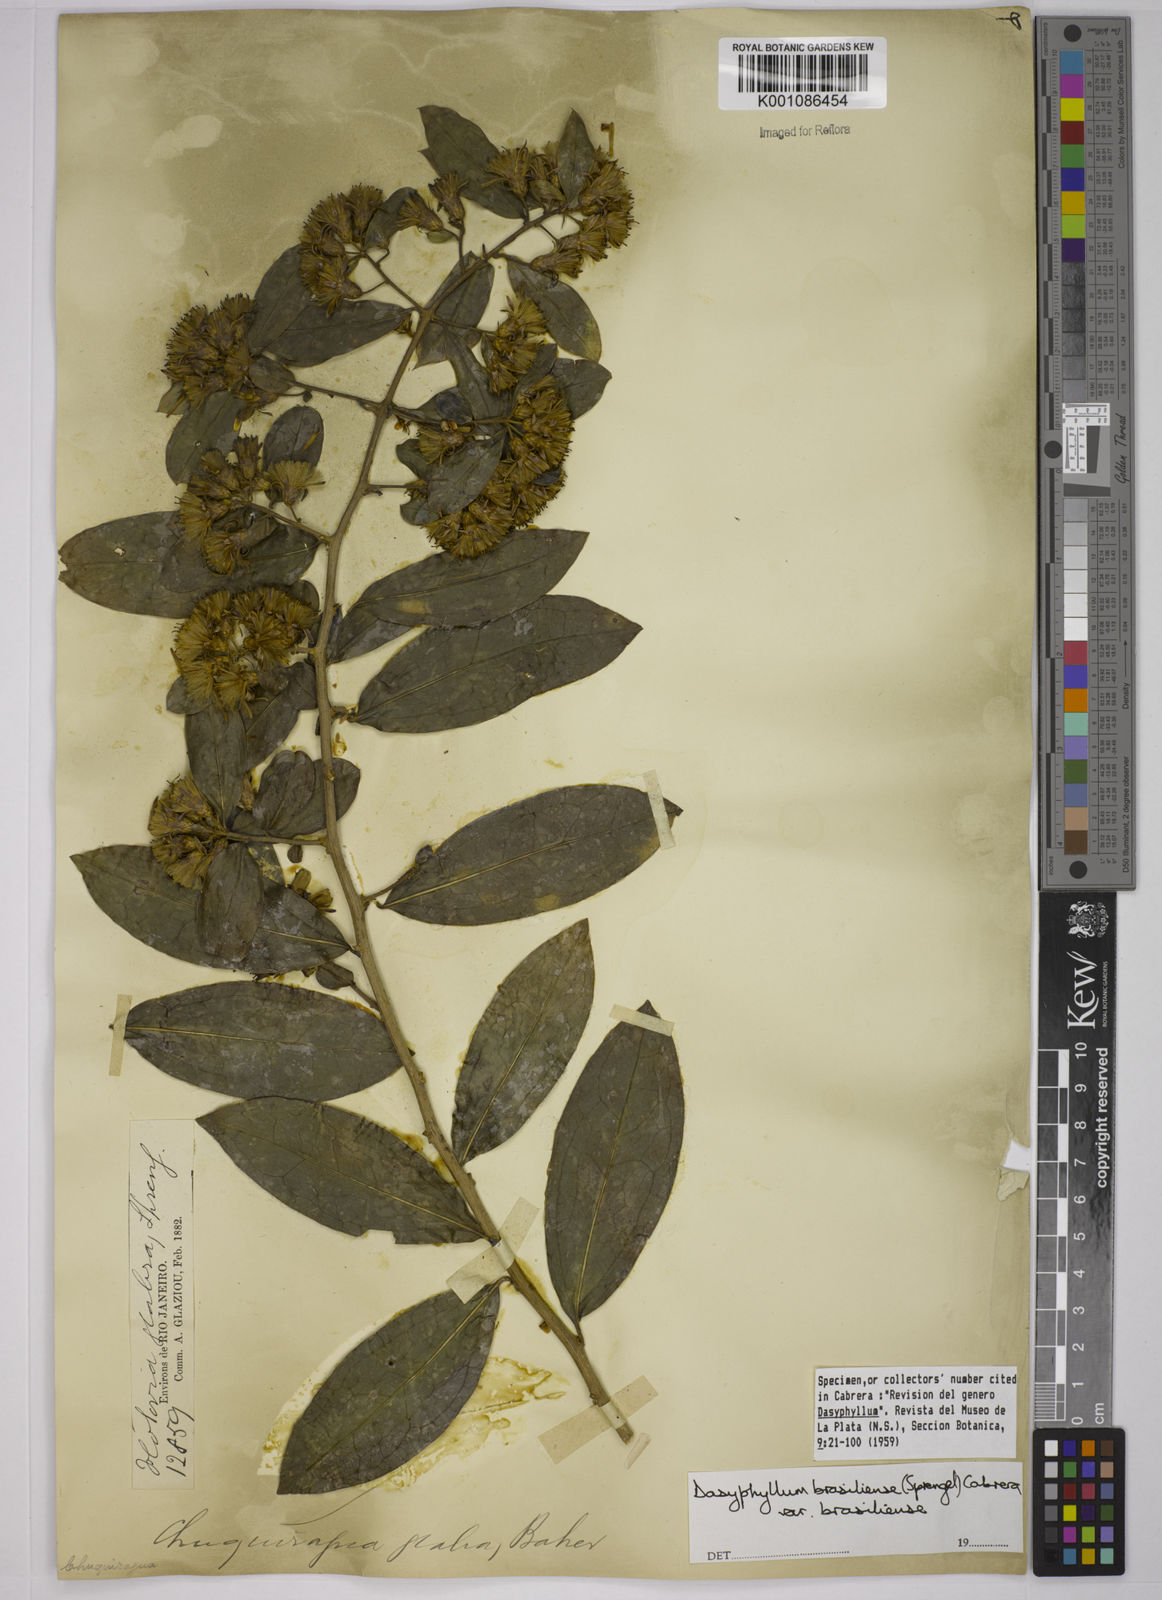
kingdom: Plantae
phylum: Tracheophyta
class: Magnoliopsida
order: Asterales
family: Asteraceae
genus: Dasyphyllum
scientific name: Dasyphyllum brasiliense
